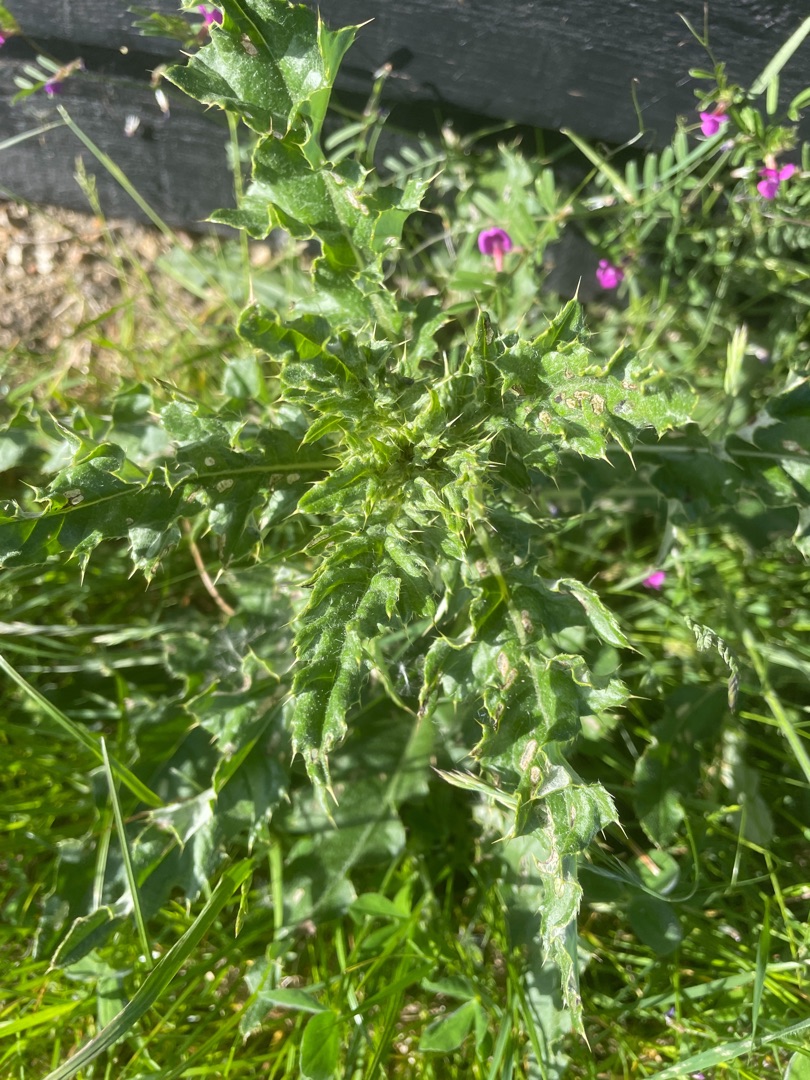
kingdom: Plantae
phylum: Tracheophyta
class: Magnoliopsida
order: Asterales
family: Asteraceae
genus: Cirsium
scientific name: Cirsium arvense
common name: Ager-tidsel
